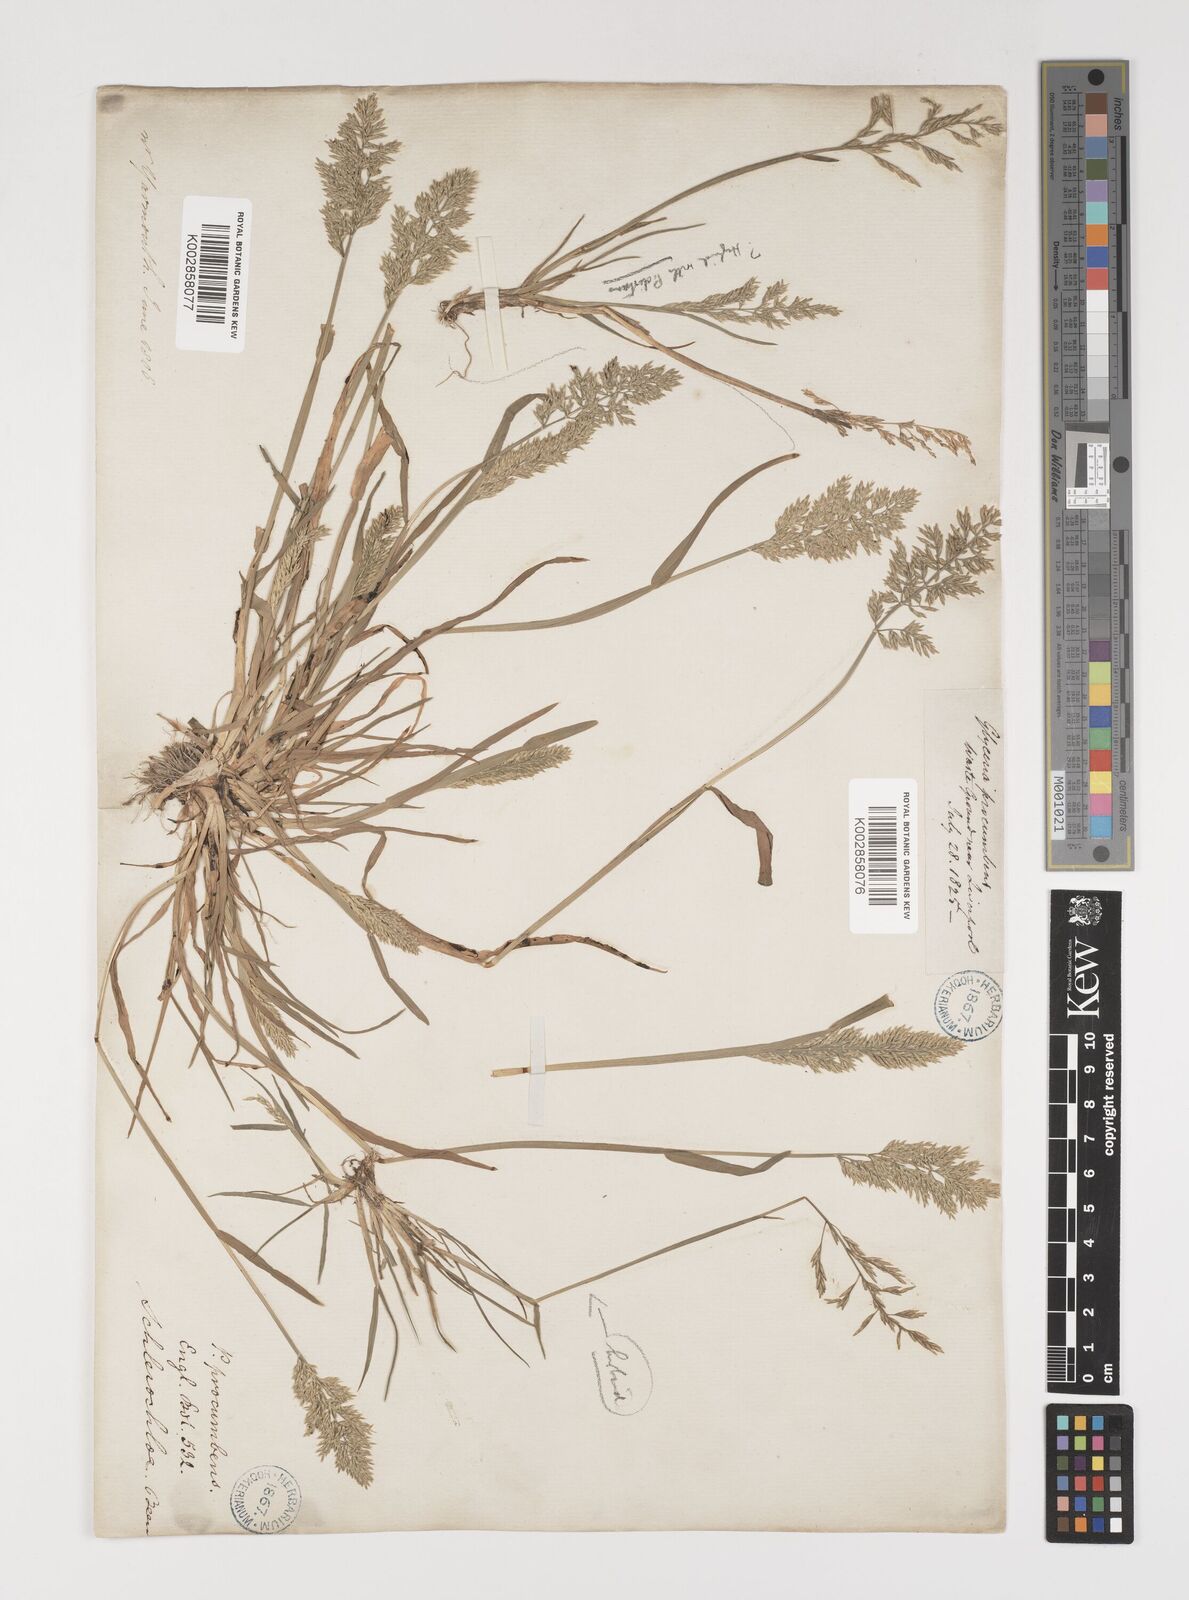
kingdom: Plantae
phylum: Tracheophyta
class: Liliopsida
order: Poales
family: Poaceae
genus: Puccinellia
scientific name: Puccinellia rupestris
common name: Stiff saltmarsh-grass
